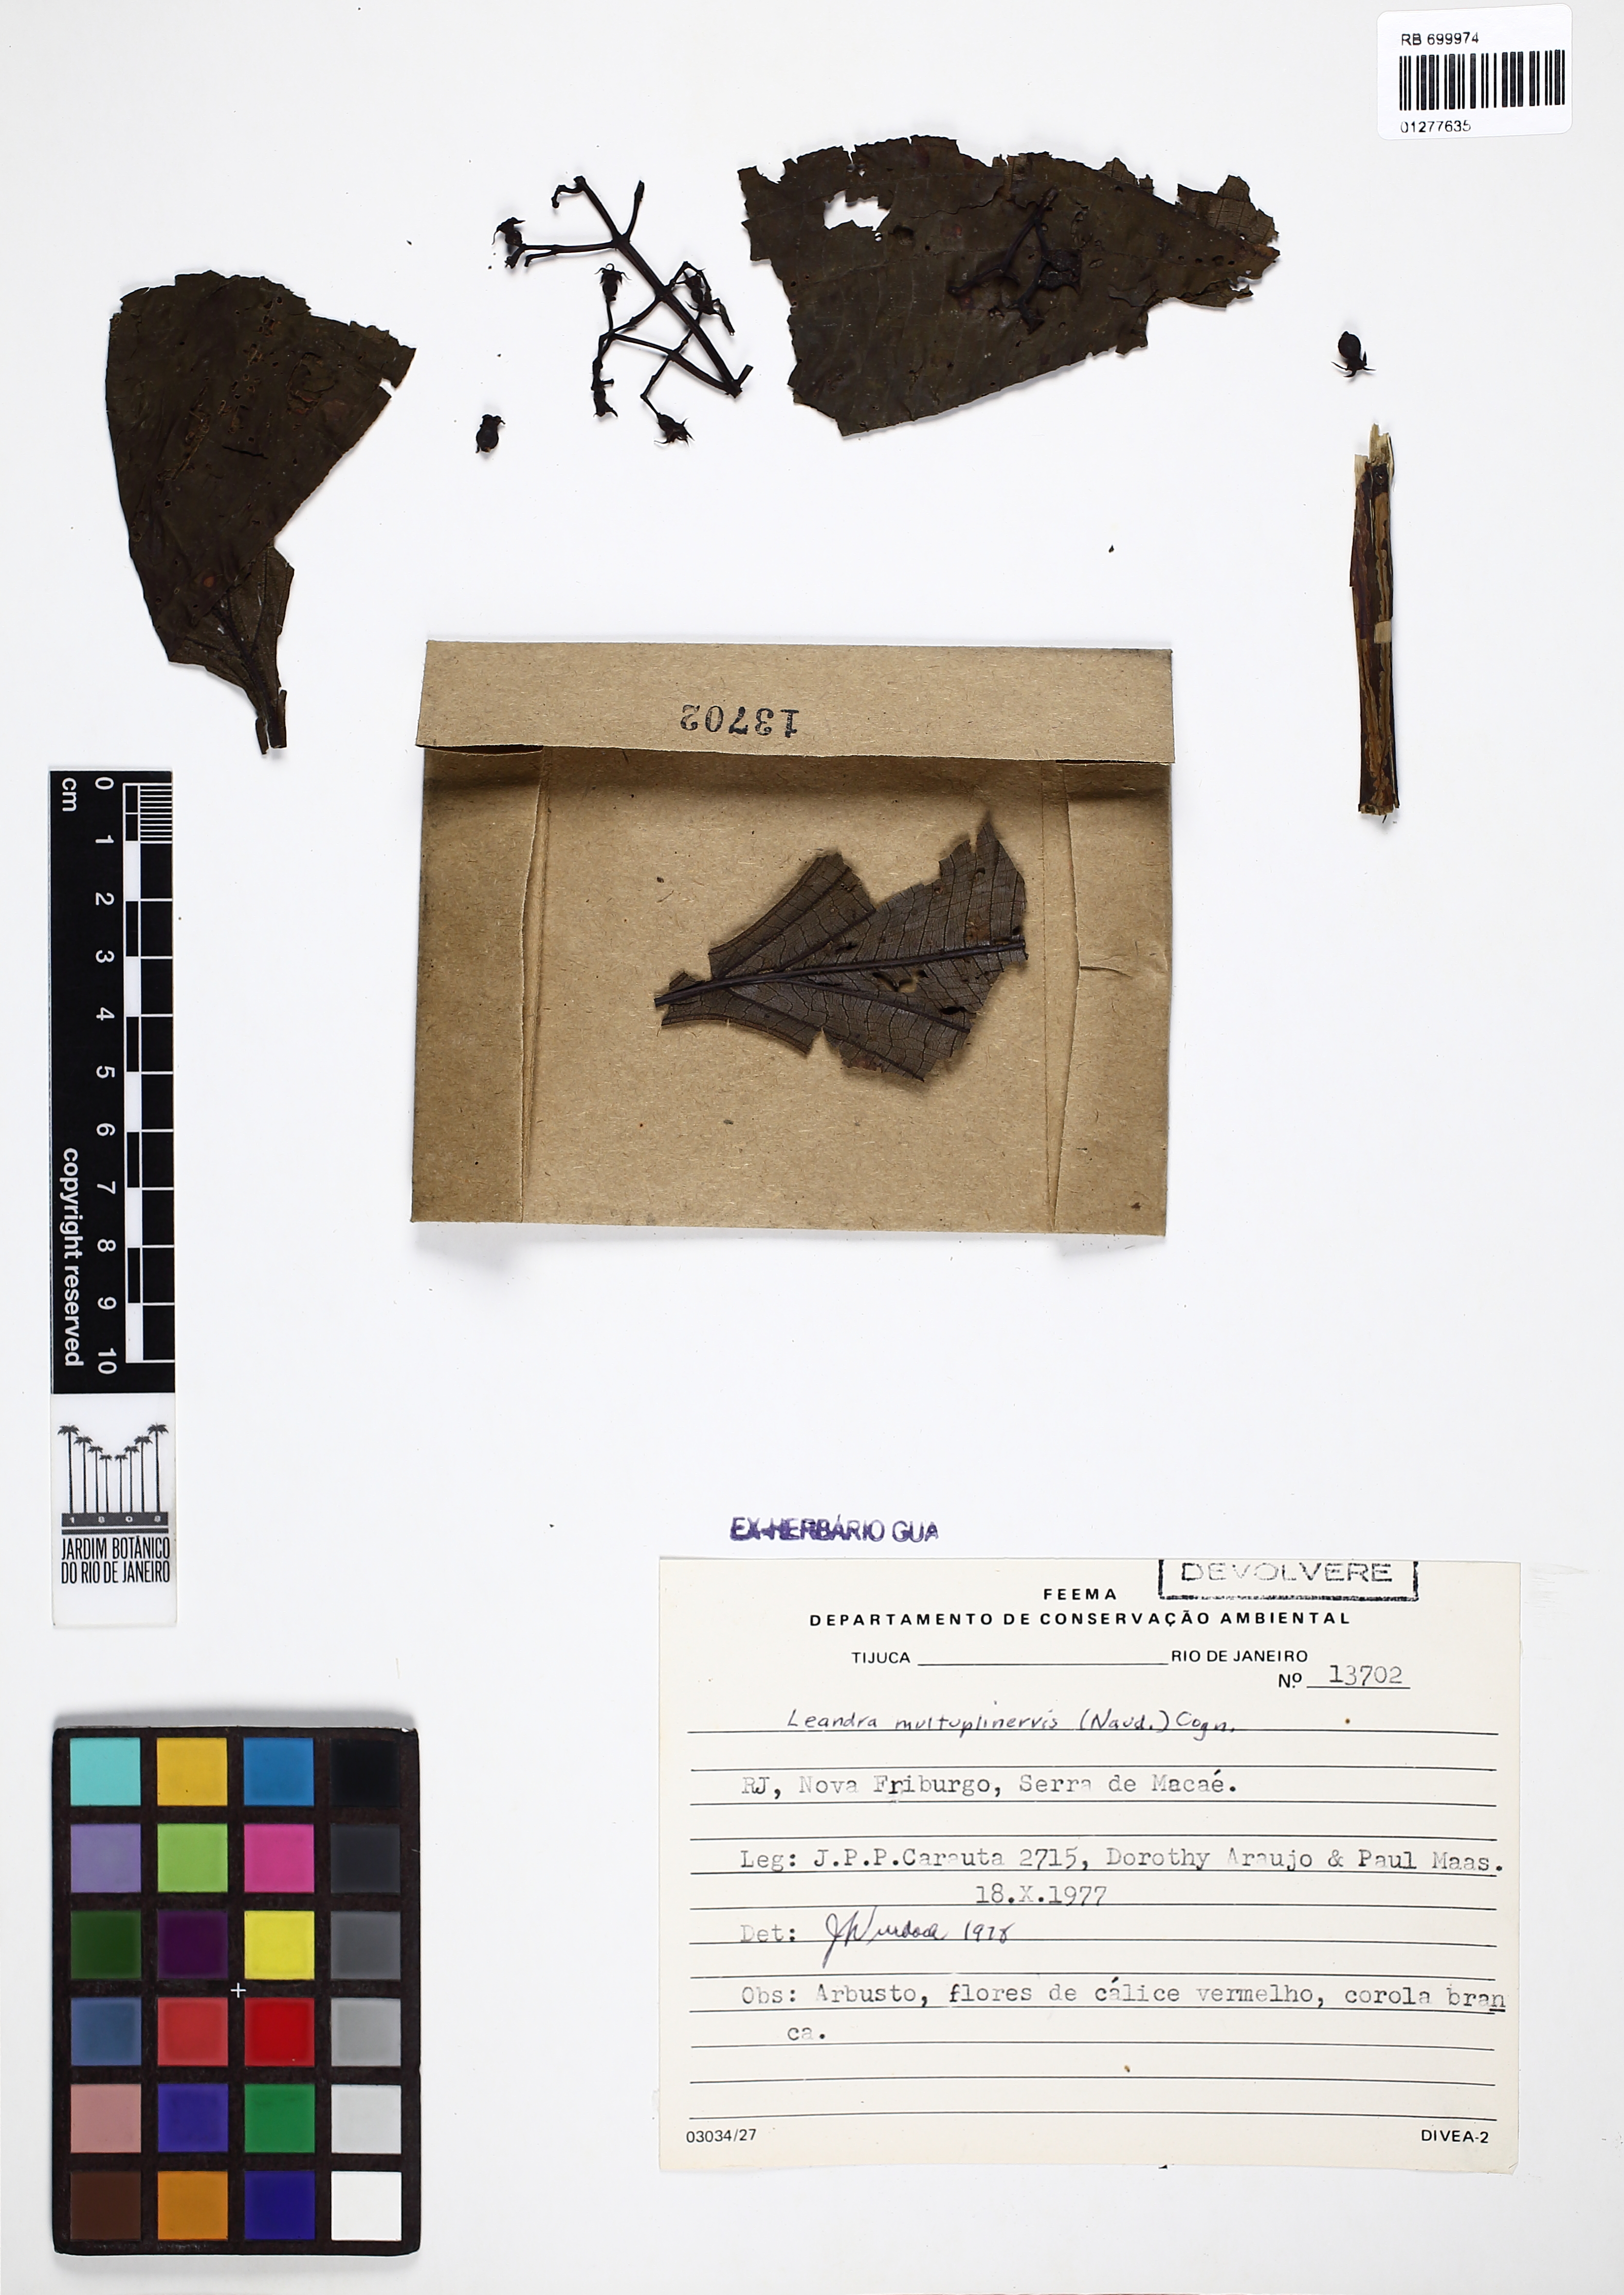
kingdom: Plantae
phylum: Tracheophyta
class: Magnoliopsida
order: Myrtales
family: Melastomataceae
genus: Miconia
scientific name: Miconia oocarpa
